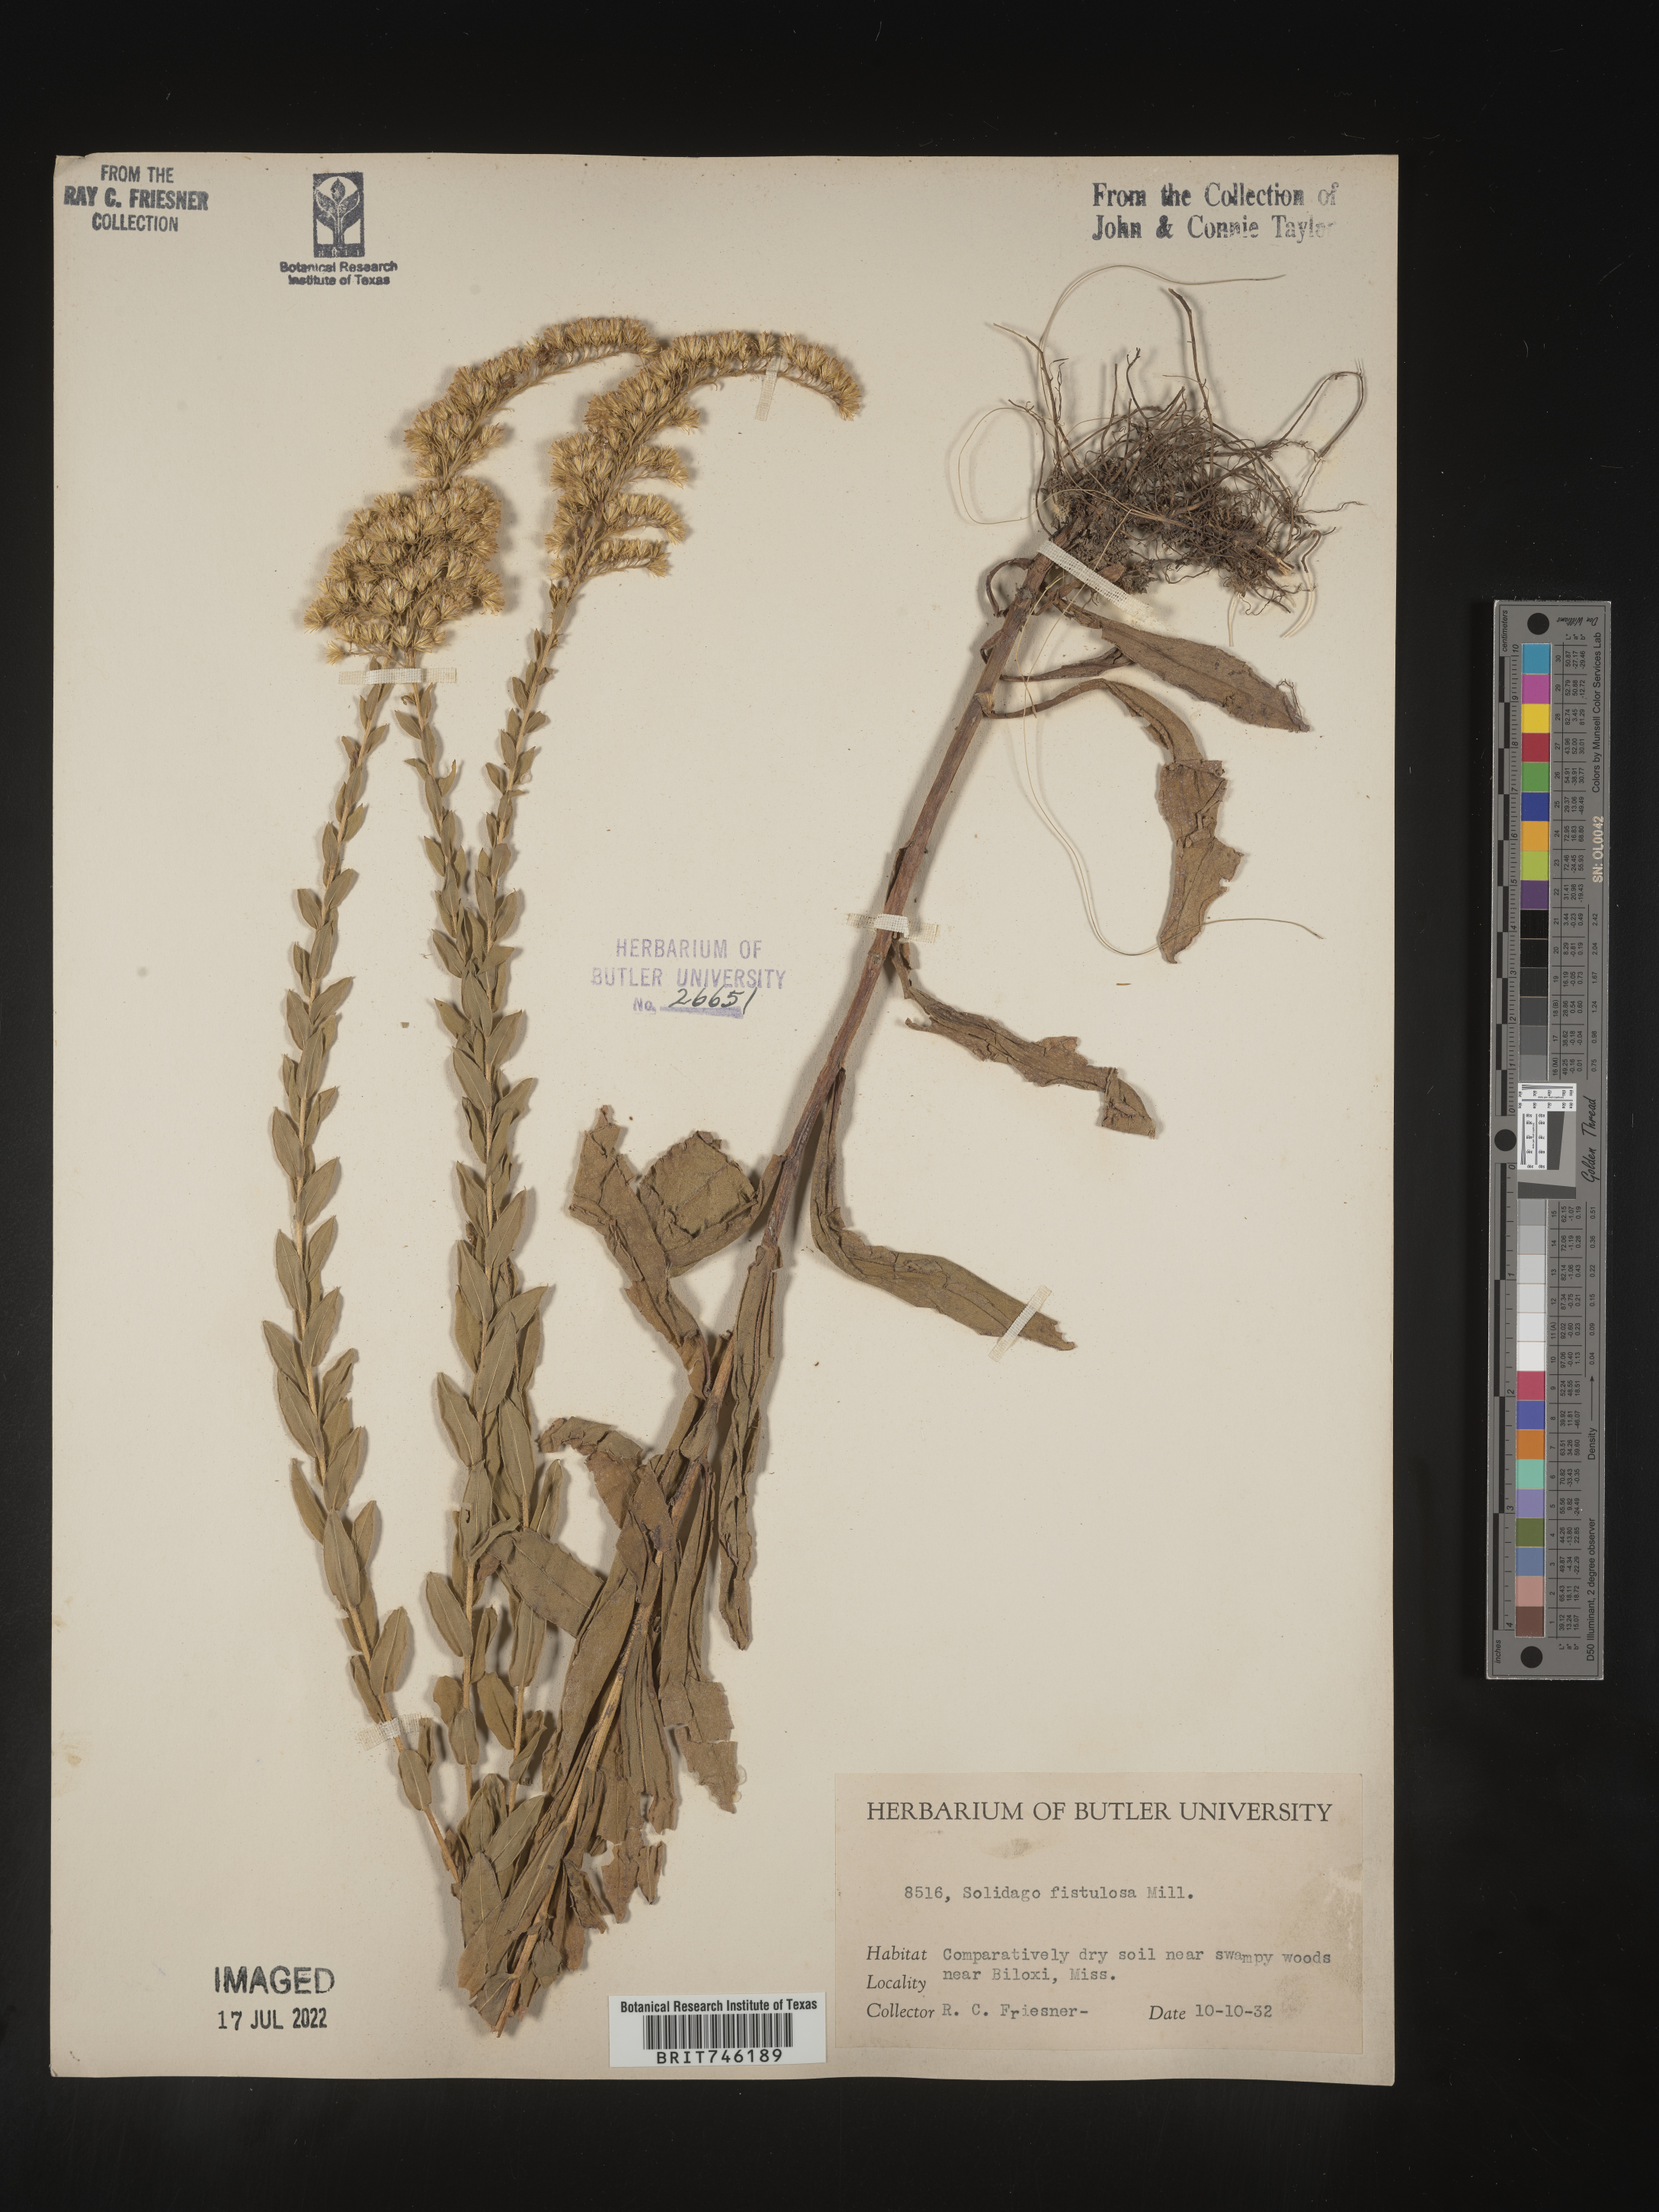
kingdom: Plantae
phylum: Tracheophyta
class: Magnoliopsida
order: Asterales
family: Asteraceae
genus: Solidago
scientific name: Solidago fistulosa
